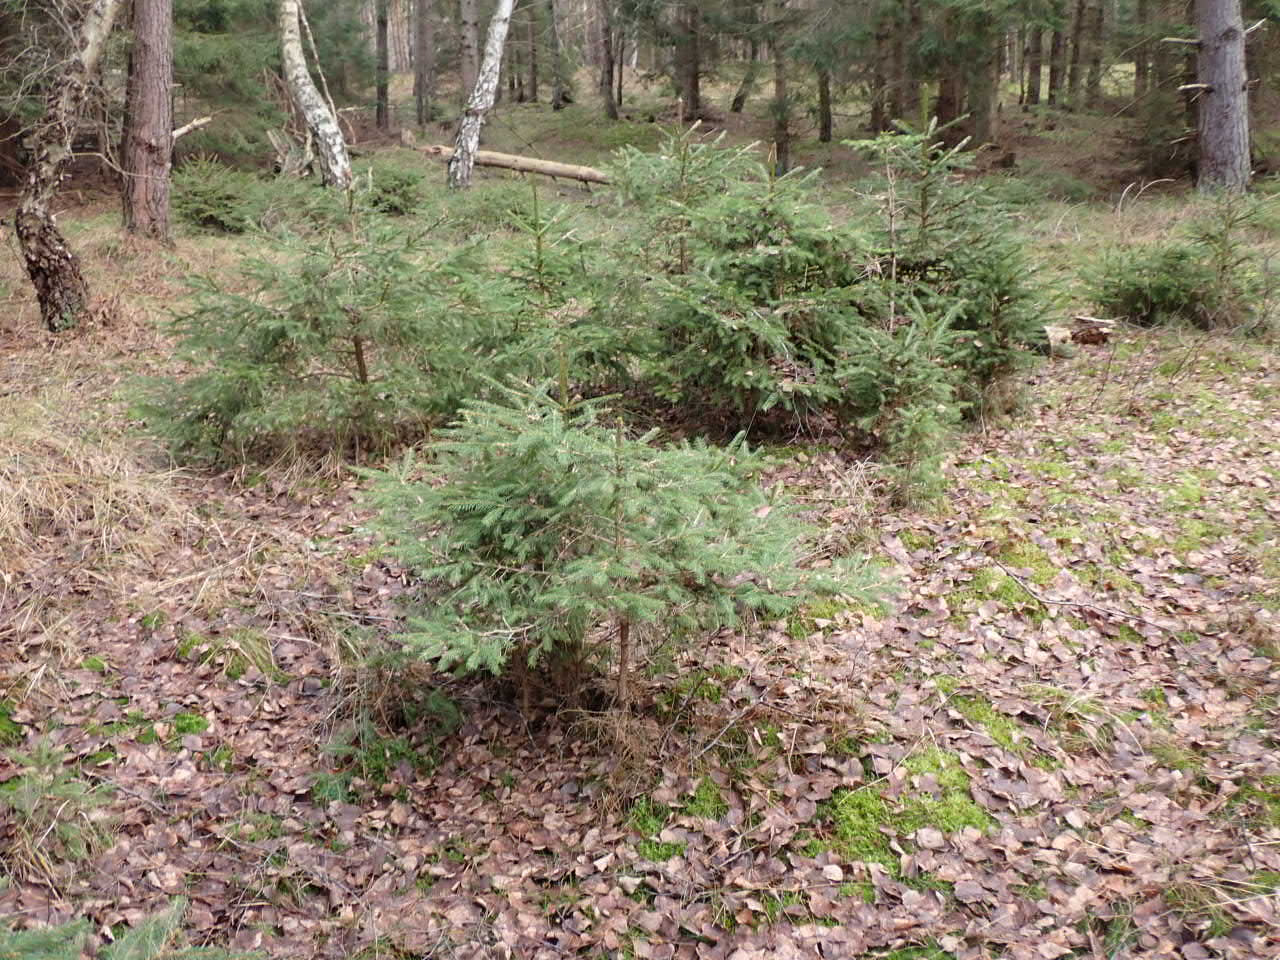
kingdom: Plantae
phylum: Tracheophyta
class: Pinopsida
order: Pinales
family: Pinaceae
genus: Picea
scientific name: Picea abies
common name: Rød-gran
